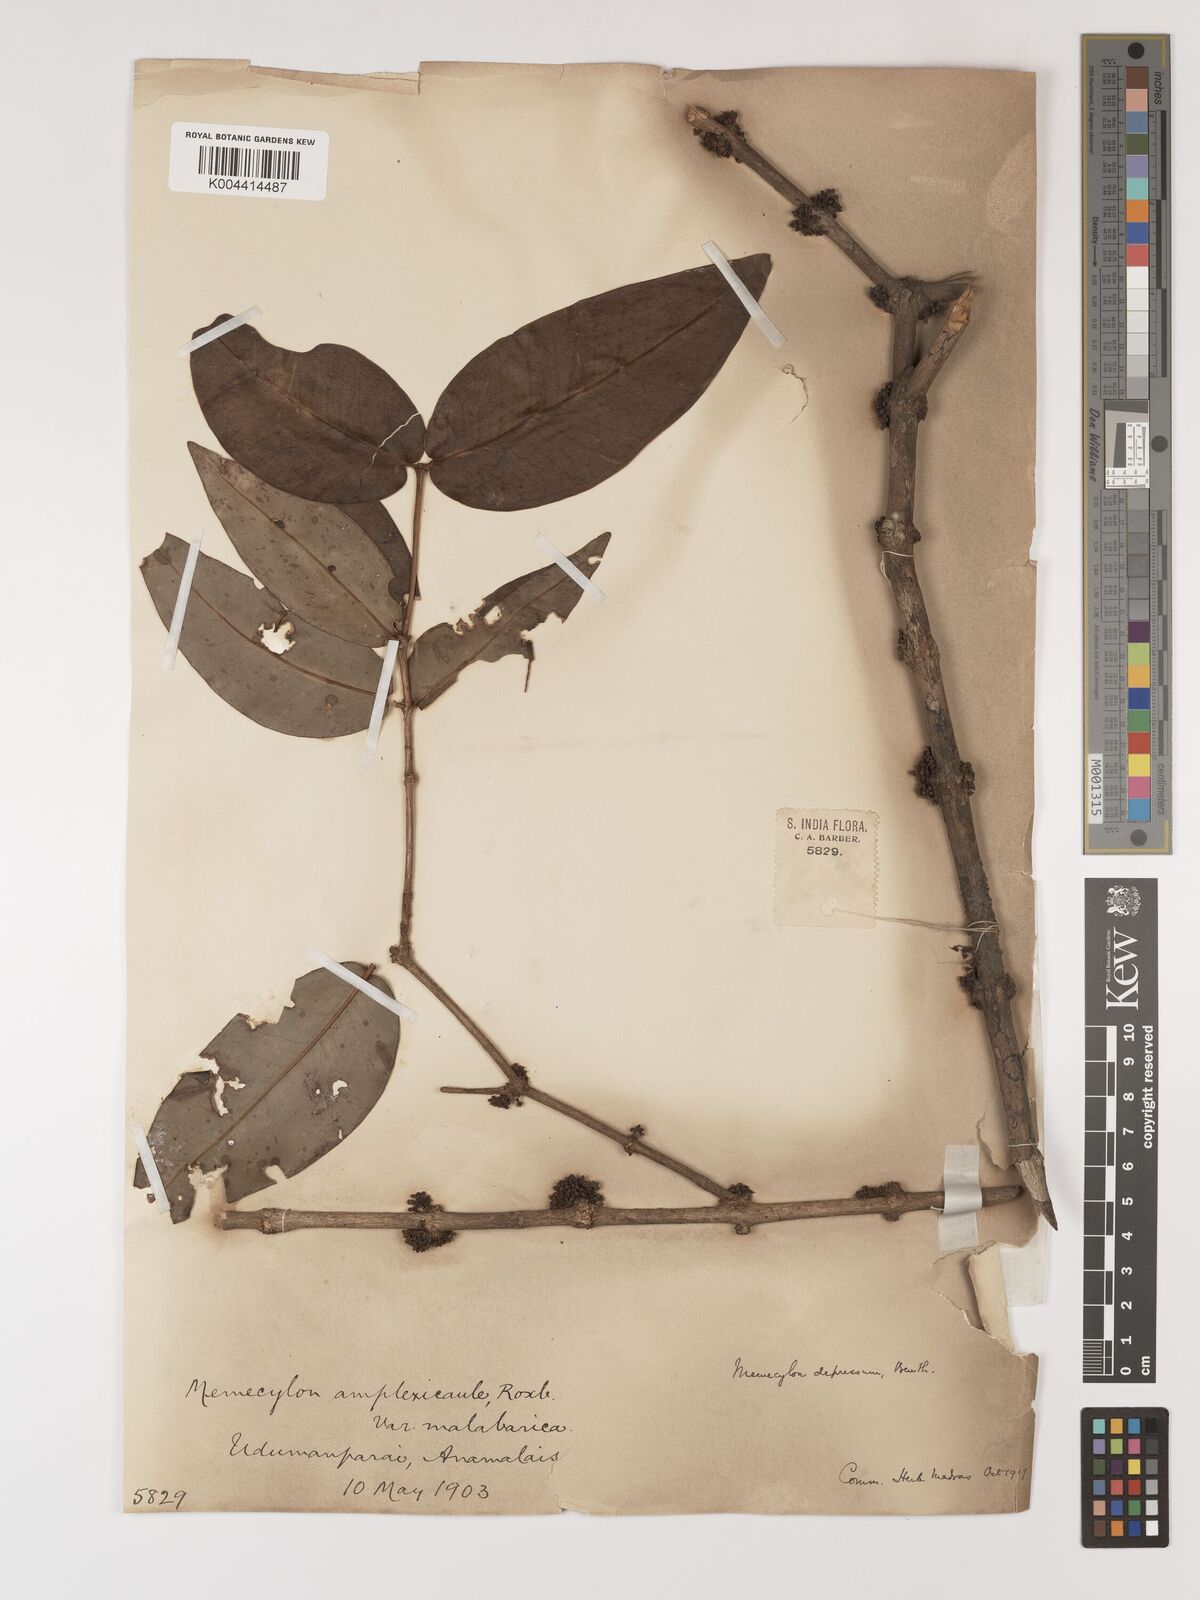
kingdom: Plantae
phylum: Tracheophyta
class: Magnoliopsida
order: Myrtales
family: Melastomataceae
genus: Memecylon
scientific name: Memecylon amplexicaule
